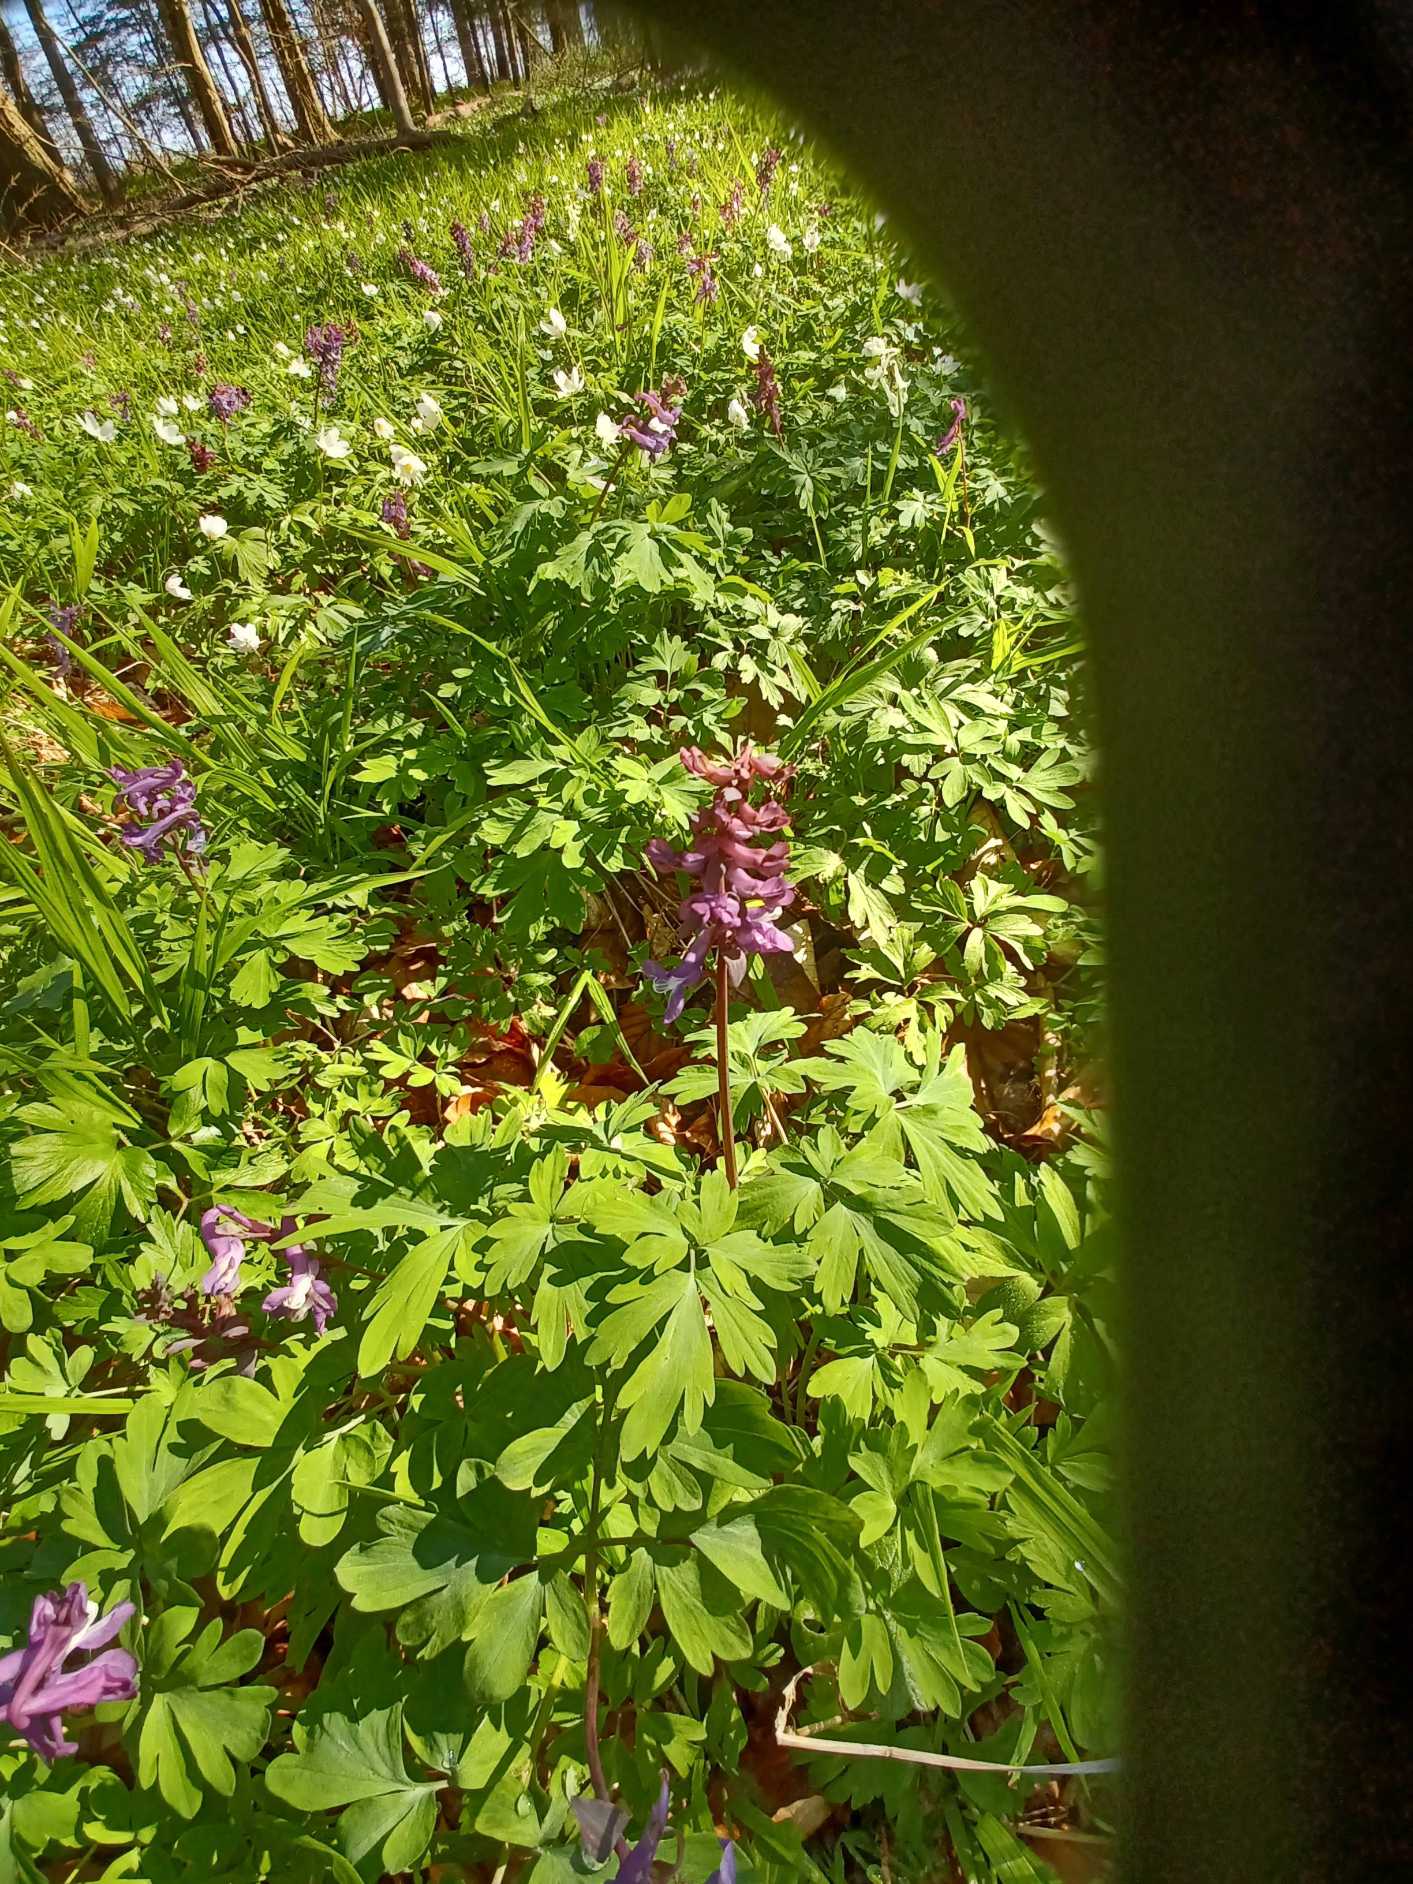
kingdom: Plantae
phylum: Tracheophyta
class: Magnoliopsida
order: Ranunculales
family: Papaveraceae
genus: Corydalis
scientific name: Corydalis cava
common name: Hulrodet lærkespore
